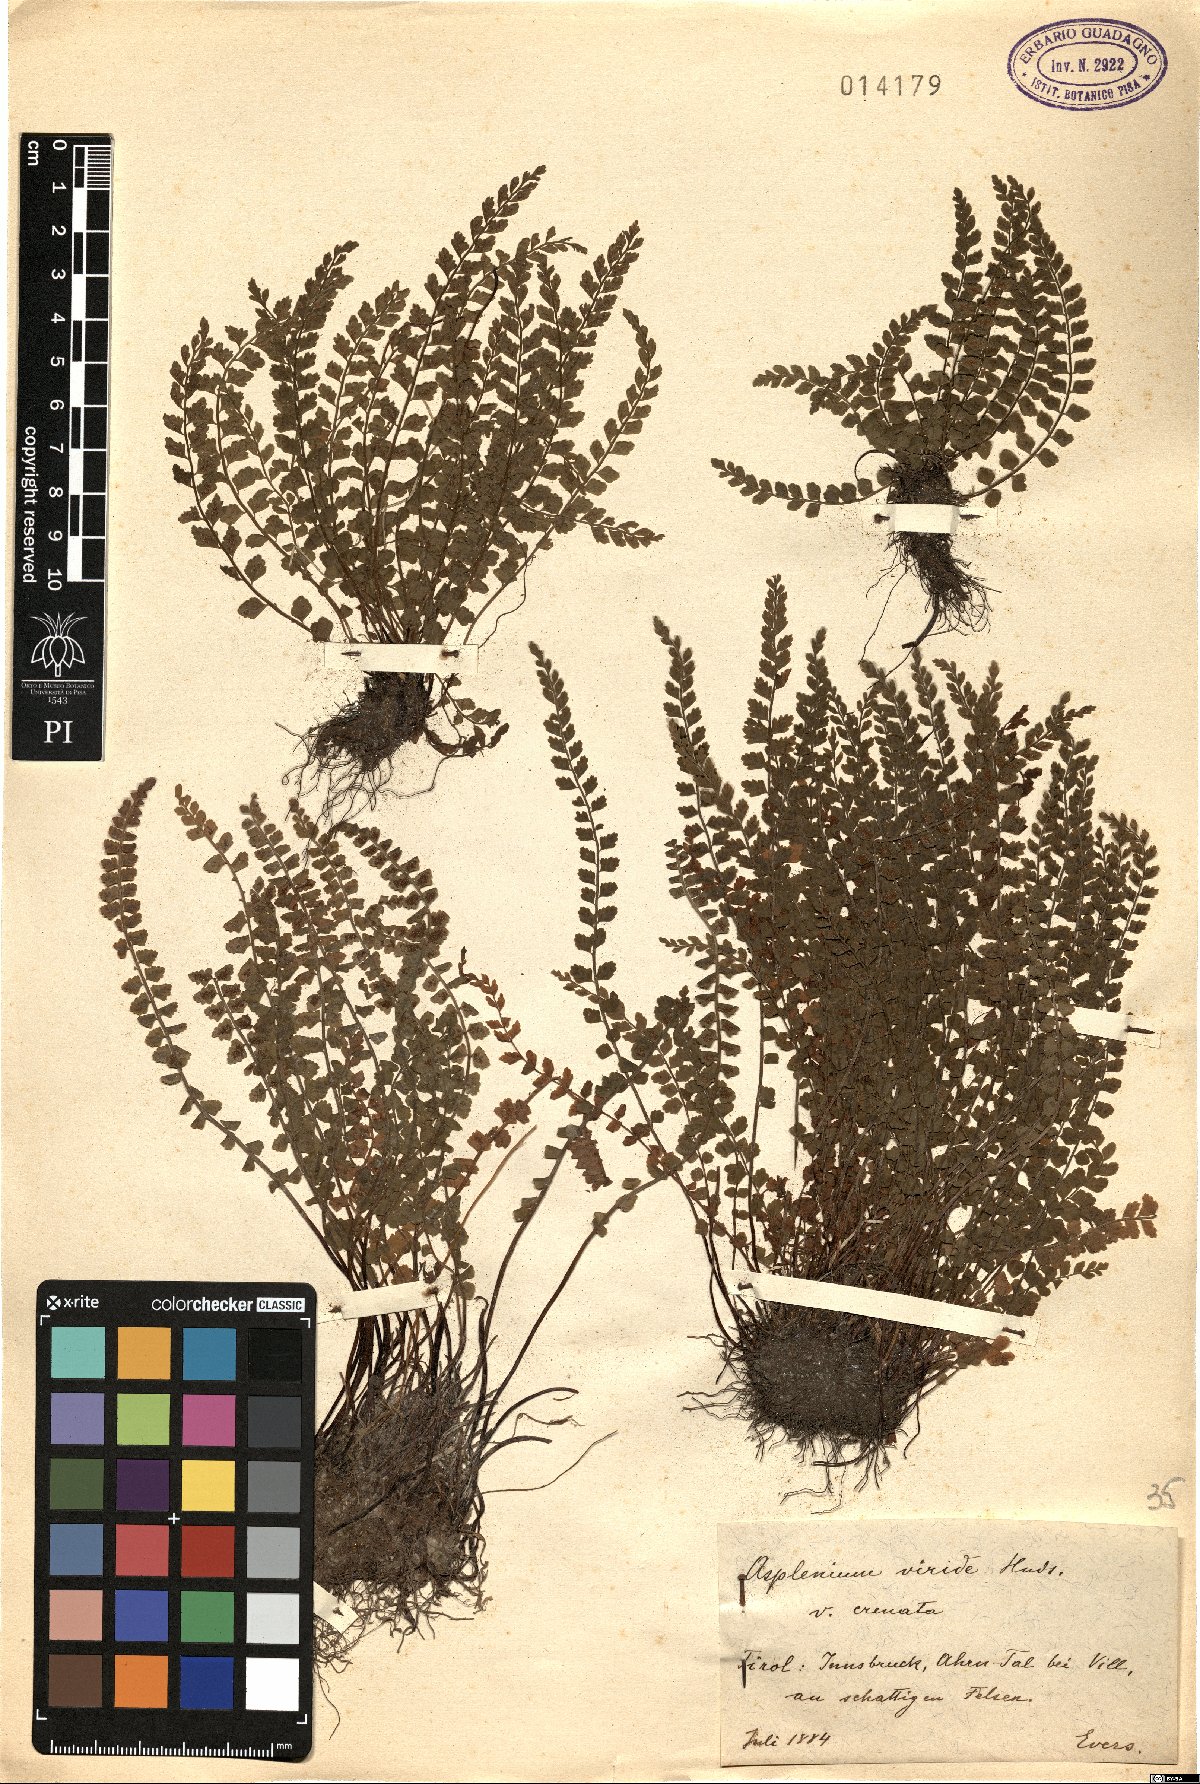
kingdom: Plantae
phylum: Tracheophyta
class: Polypodiopsida
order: Polypodiales
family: Aspleniaceae
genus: Asplenium
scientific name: Asplenium viride
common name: Green spleenwort
